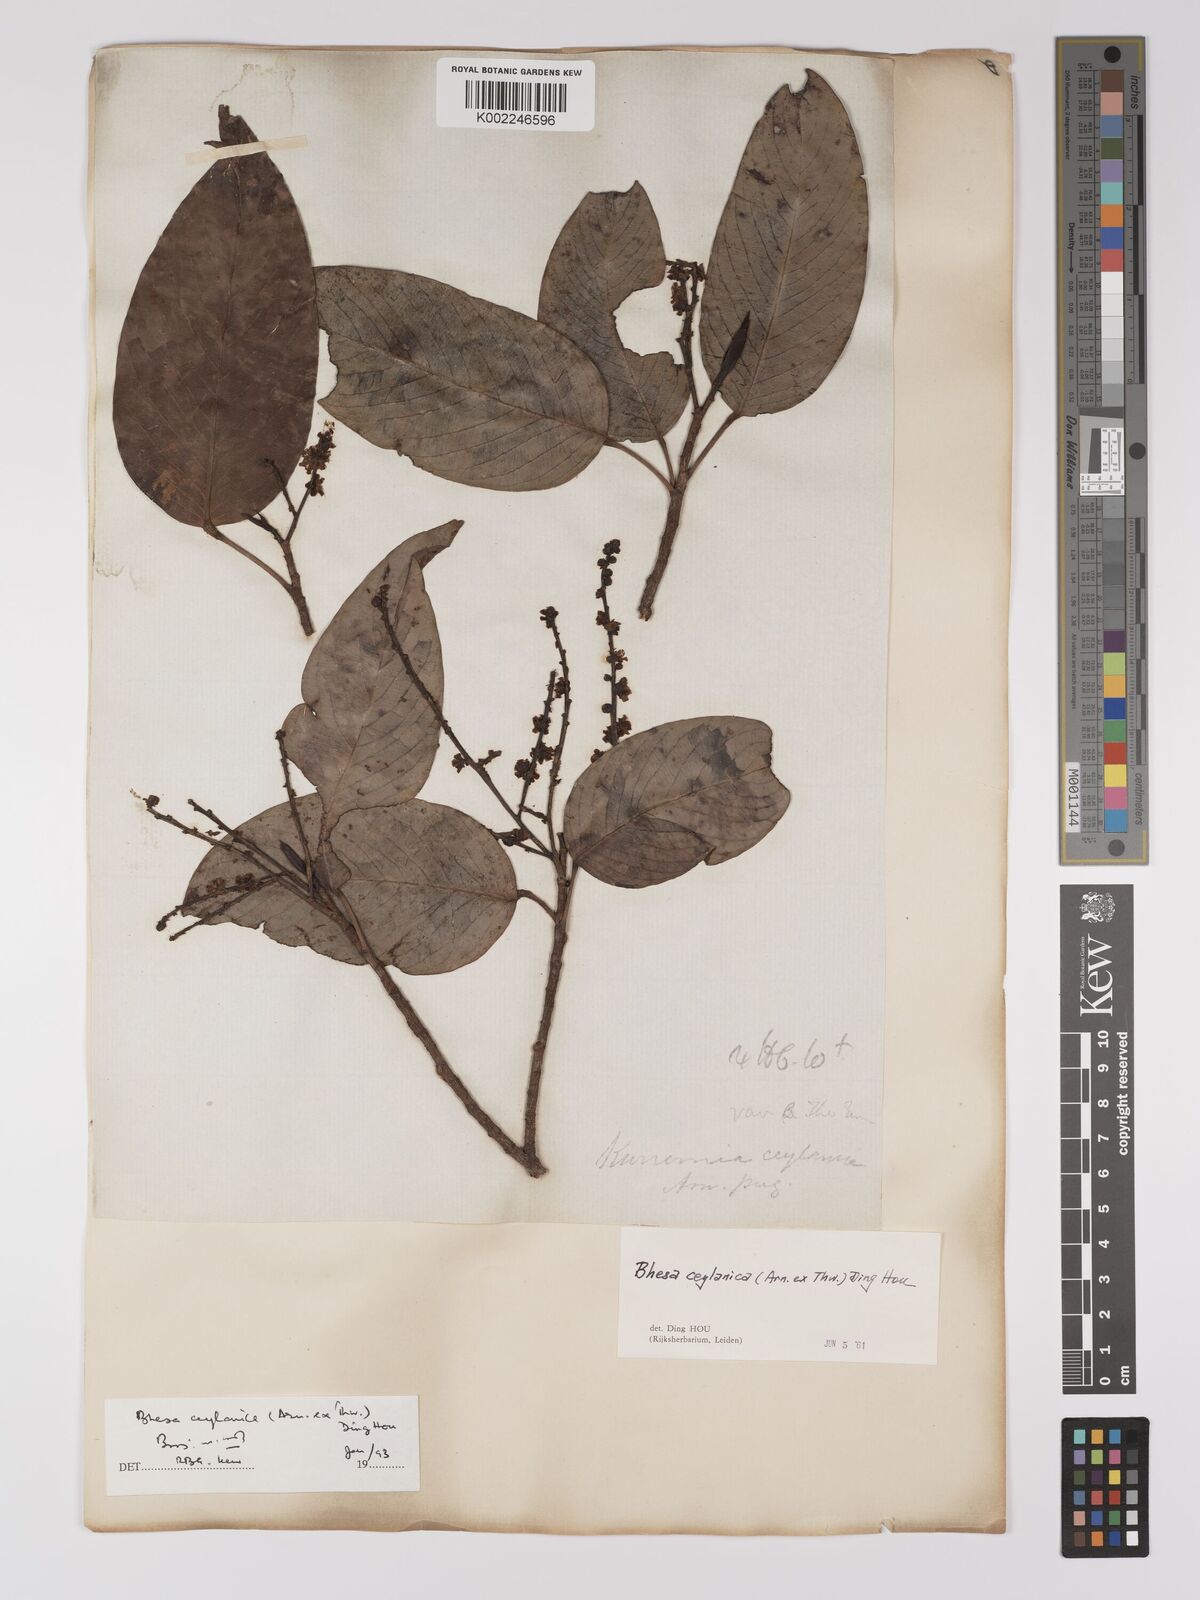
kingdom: Plantae
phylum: Tracheophyta
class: Magnoliopsida
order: Malpighiales
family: Centroplacaceae
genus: Bhesa
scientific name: Bhesa ceylanica
